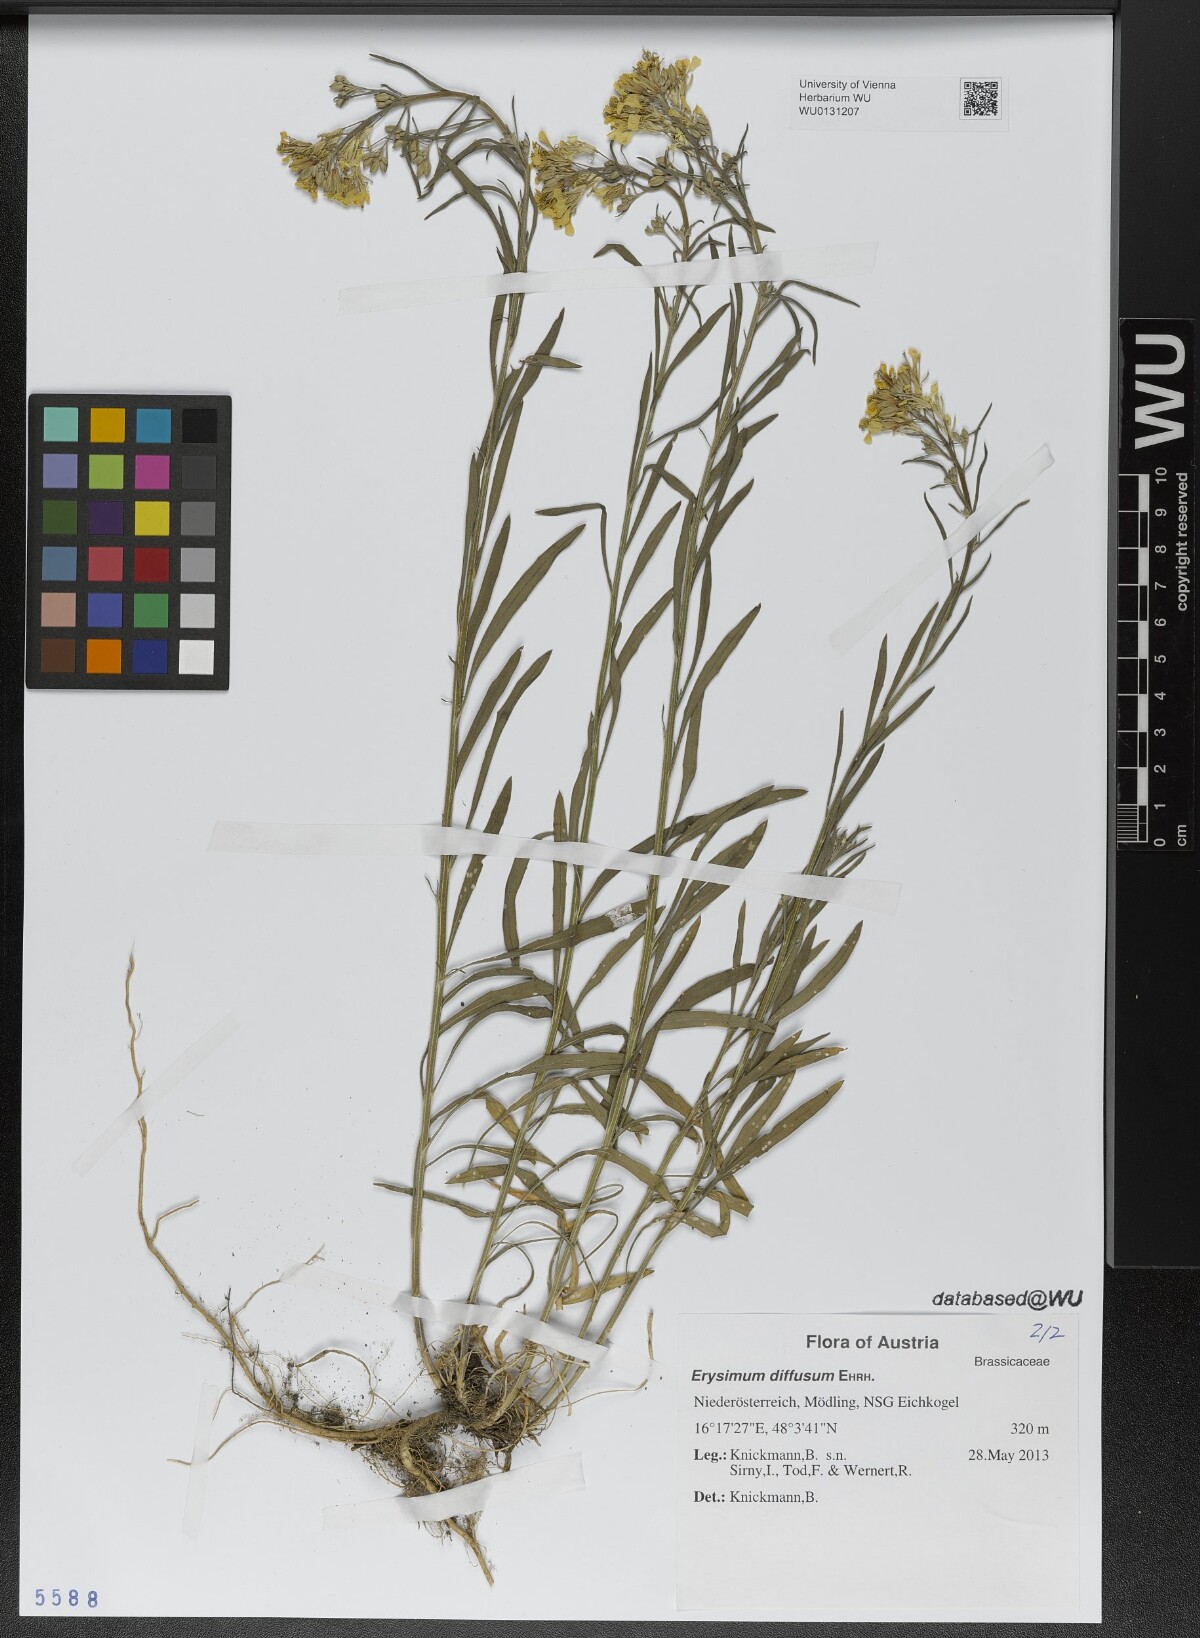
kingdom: Plantae
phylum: Tracheophyta
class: Magnoliopsida
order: Brassicales
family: Brassicaceae
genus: Erysimum
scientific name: Erysimum diffusum
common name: Diffuse wallflower
